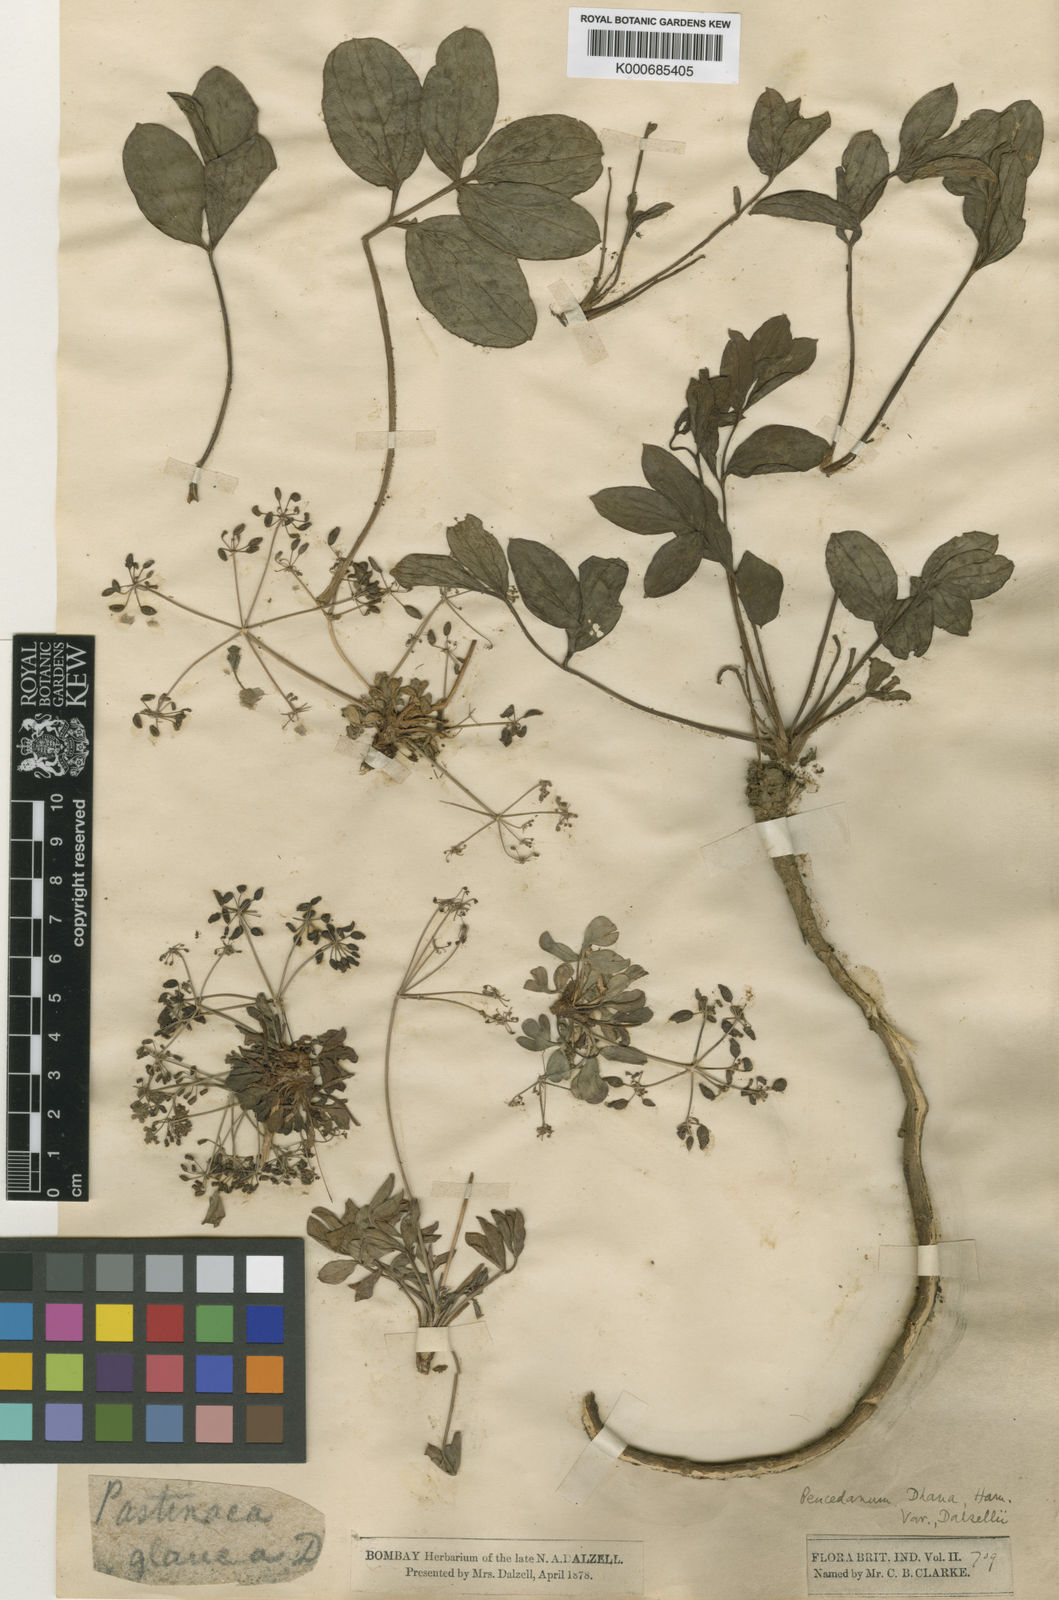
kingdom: Plantae
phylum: Tracheophyta
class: Magnoliopsida
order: Apiales
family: Apiaceae
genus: Peucedanum
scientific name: Peucedanum
